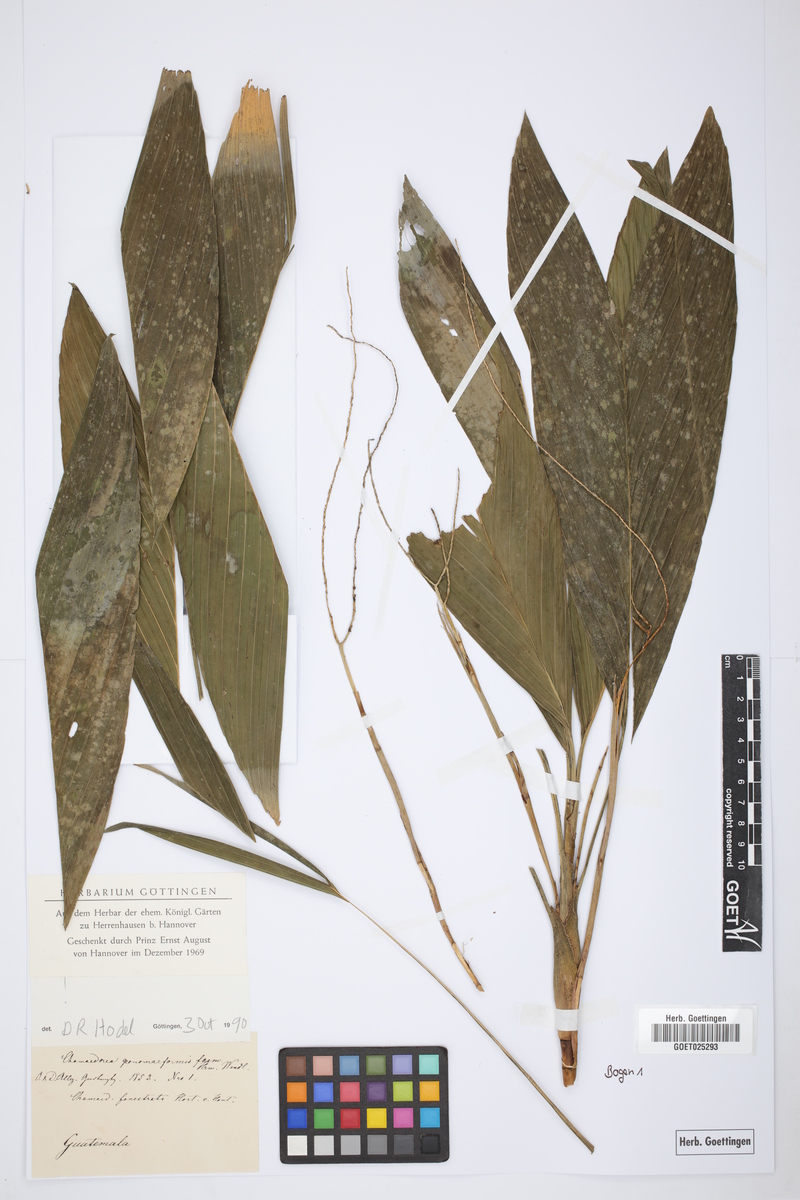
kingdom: Plantae
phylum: Tracheophyta
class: Liliopsida
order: Arecales
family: Arecaceae
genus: Chamaedorea
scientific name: Chamaedorea geonomiformis
